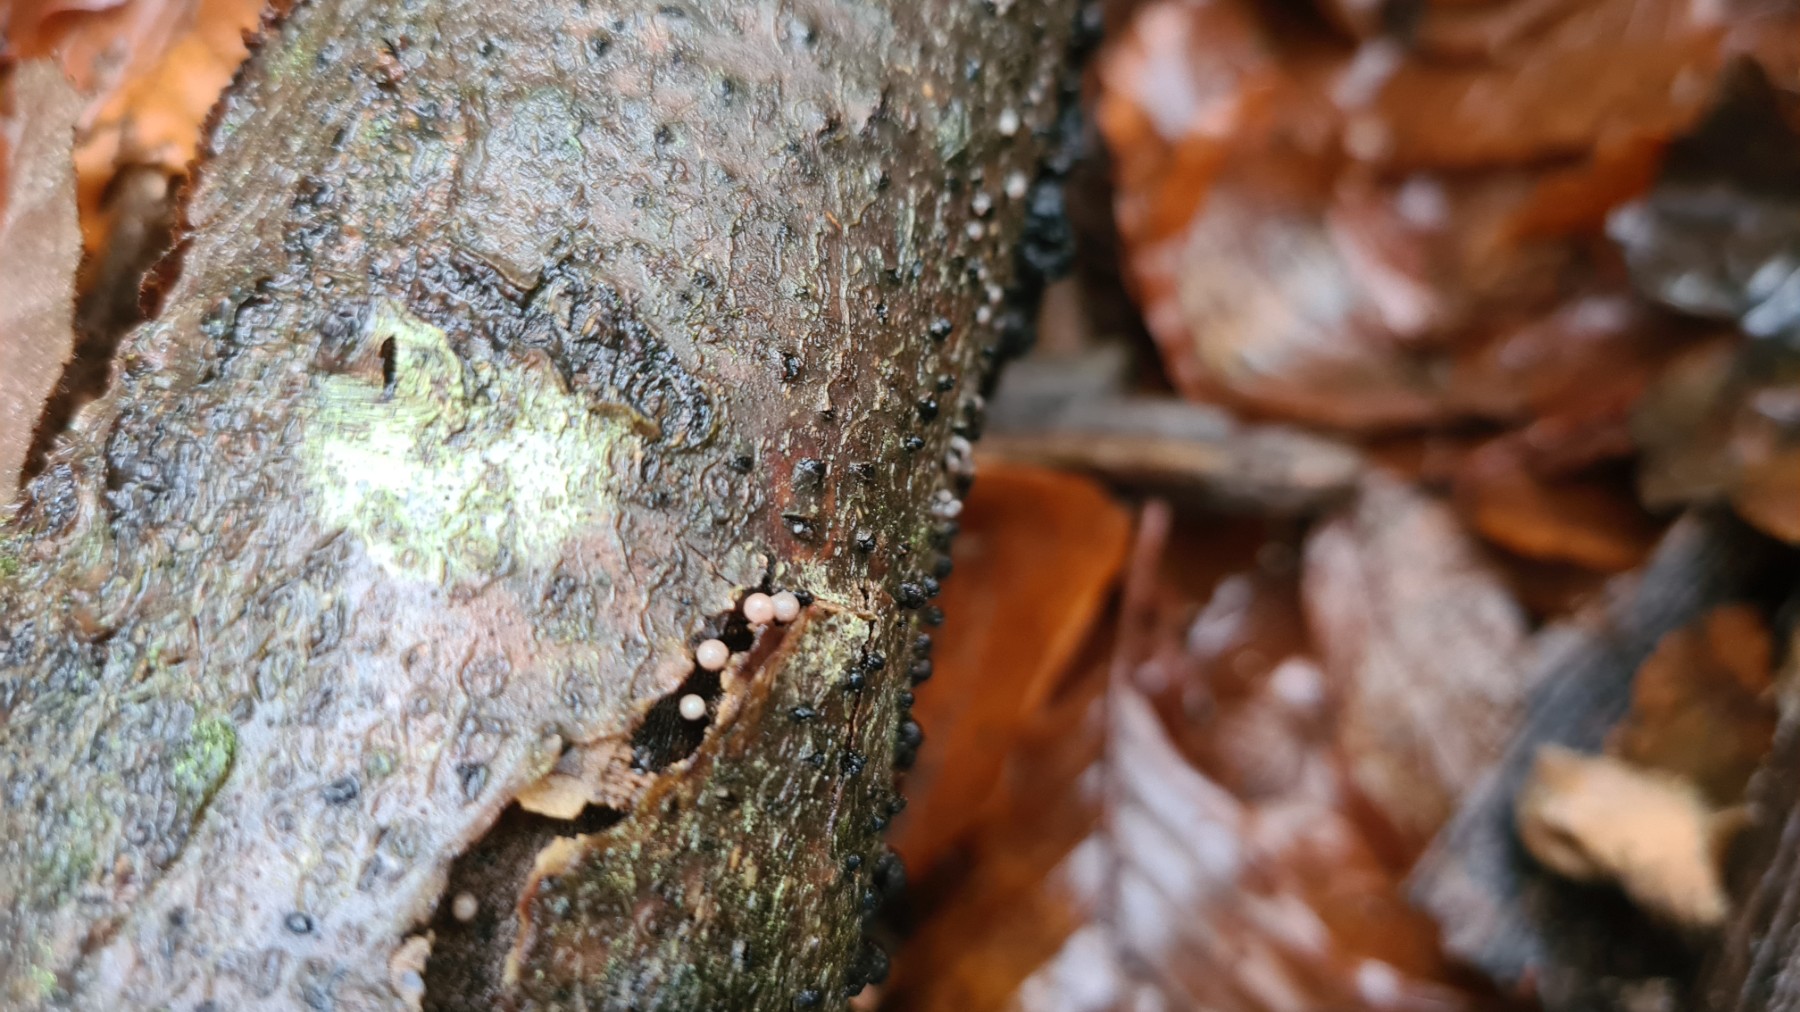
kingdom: Fungi
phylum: Ascomycota
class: Leotiomycetes
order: Helotiales
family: Gelatinodiscaceae
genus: Ascocoryne
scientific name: Ascocoryne albida
